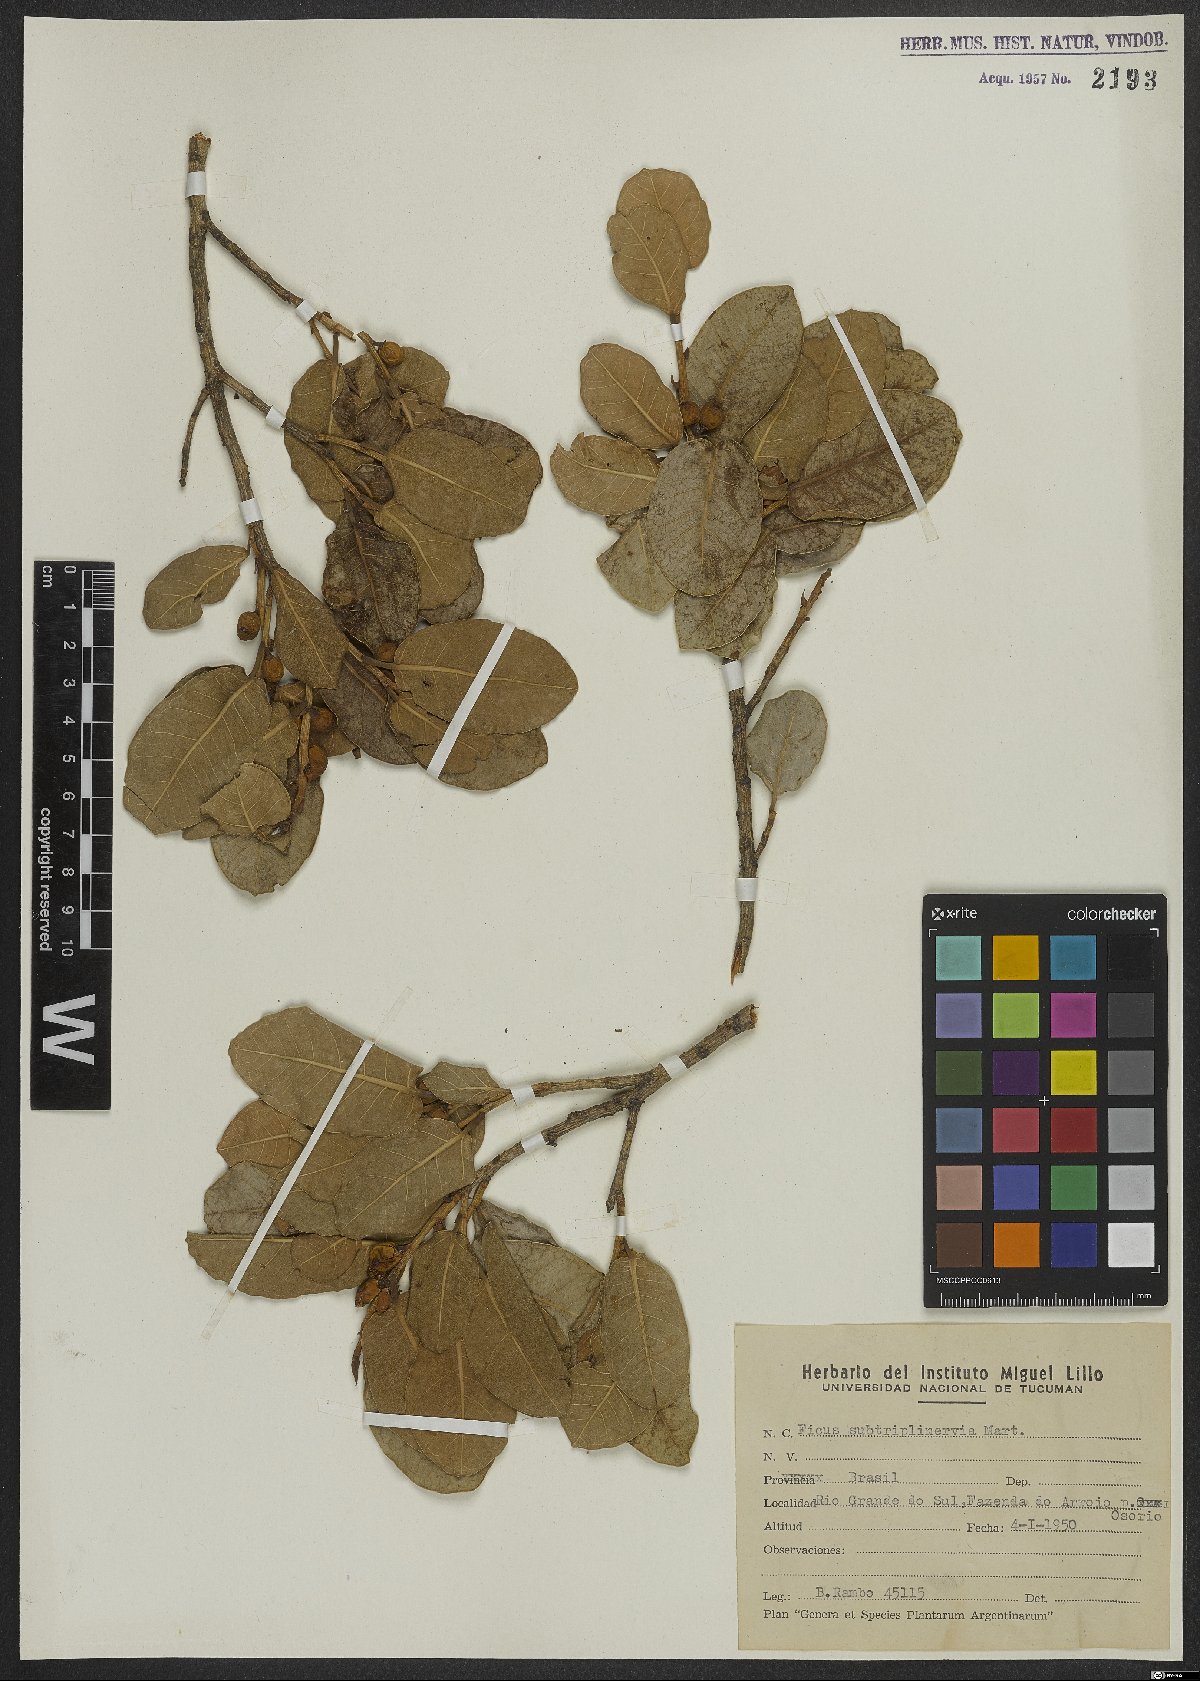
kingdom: Plantae
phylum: Tracheophyta
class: Magnoliopsida
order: Rosales
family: Moraceae
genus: Ficus
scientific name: Ficus pertusa
